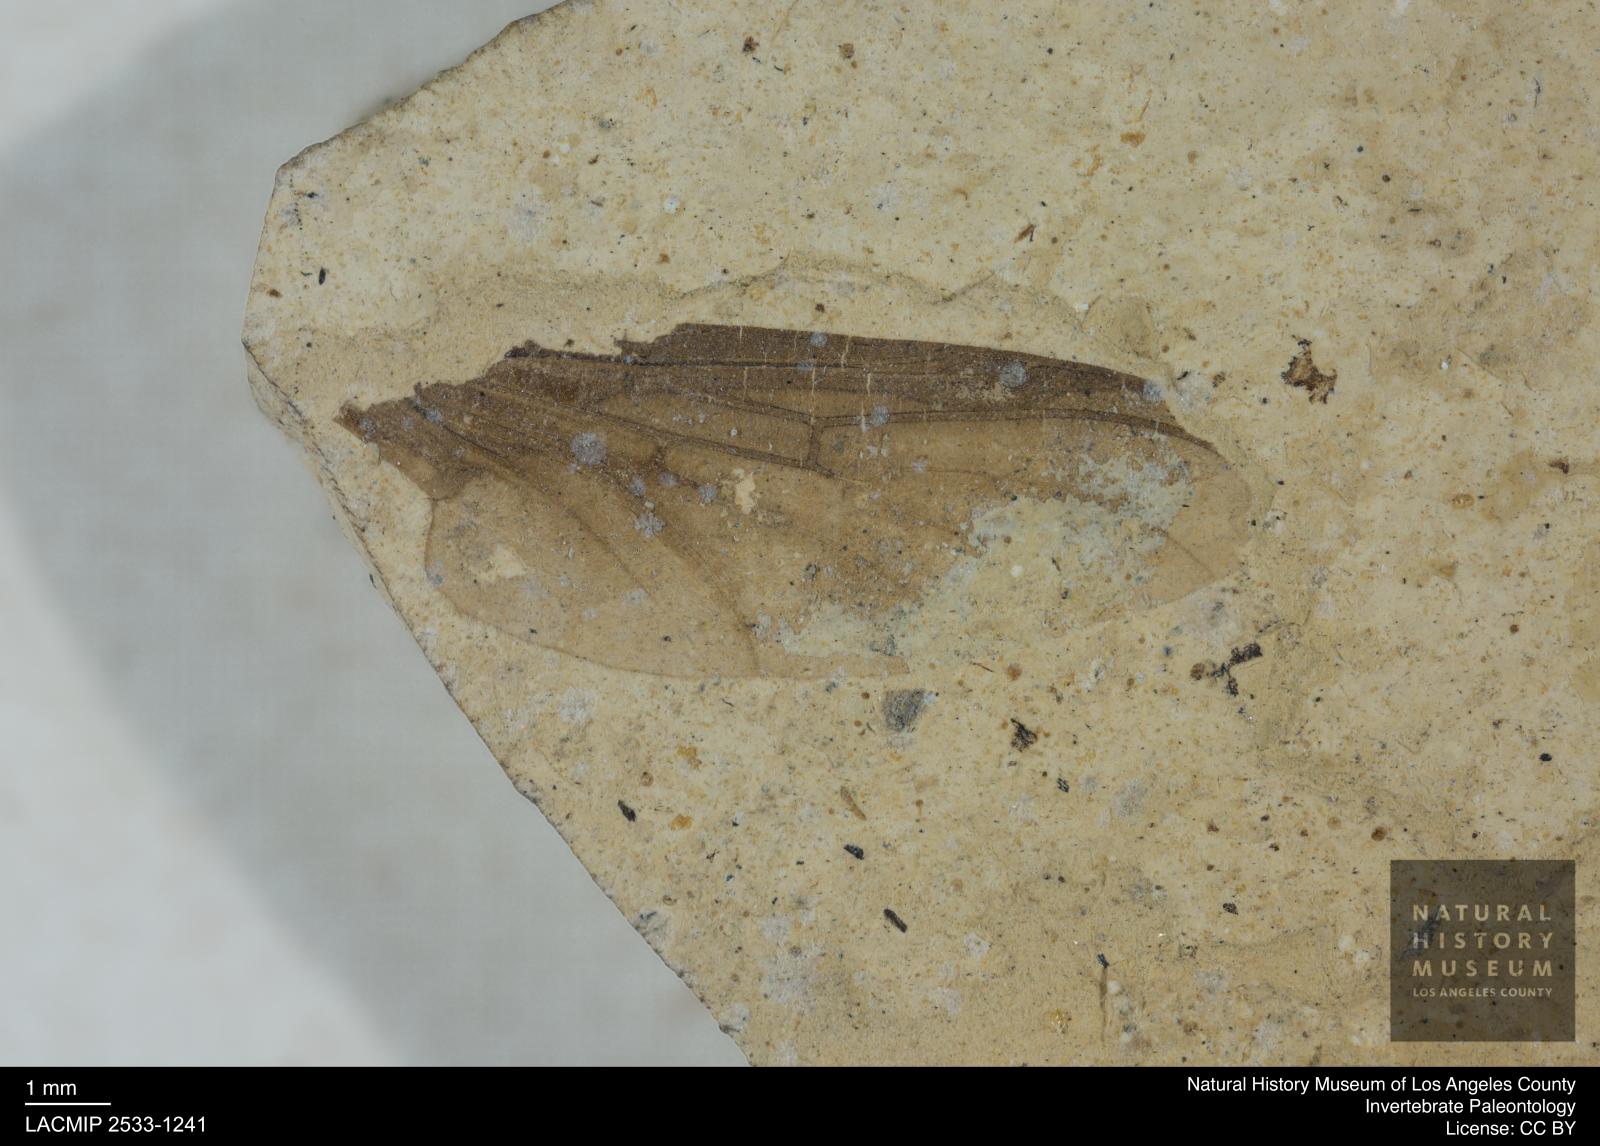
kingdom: Animalia
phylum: Arthropoda
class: Insecta
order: Diptera
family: Bibionidae
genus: Plecia
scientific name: Plecia
